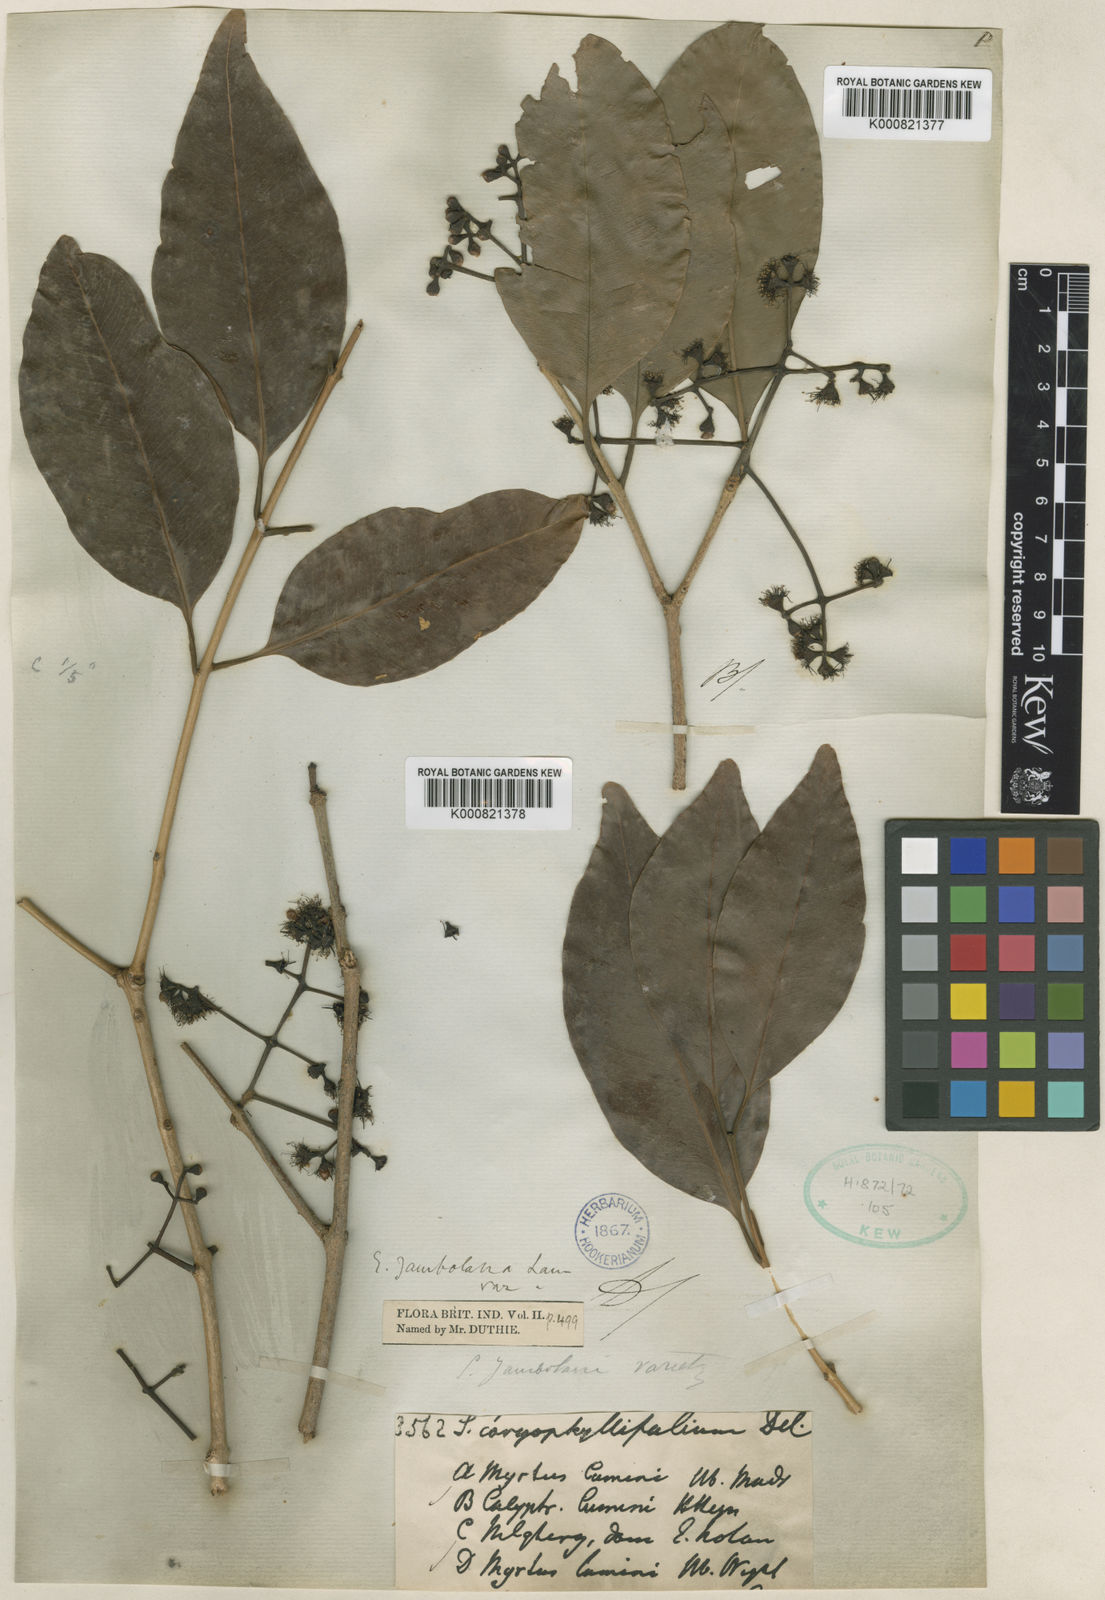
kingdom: Plantae
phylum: Tracheophyta
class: Magnoliopsida
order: Myrtales
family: Myrtaceae
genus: Syzygium
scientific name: Syzygium cumini
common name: Java plum
